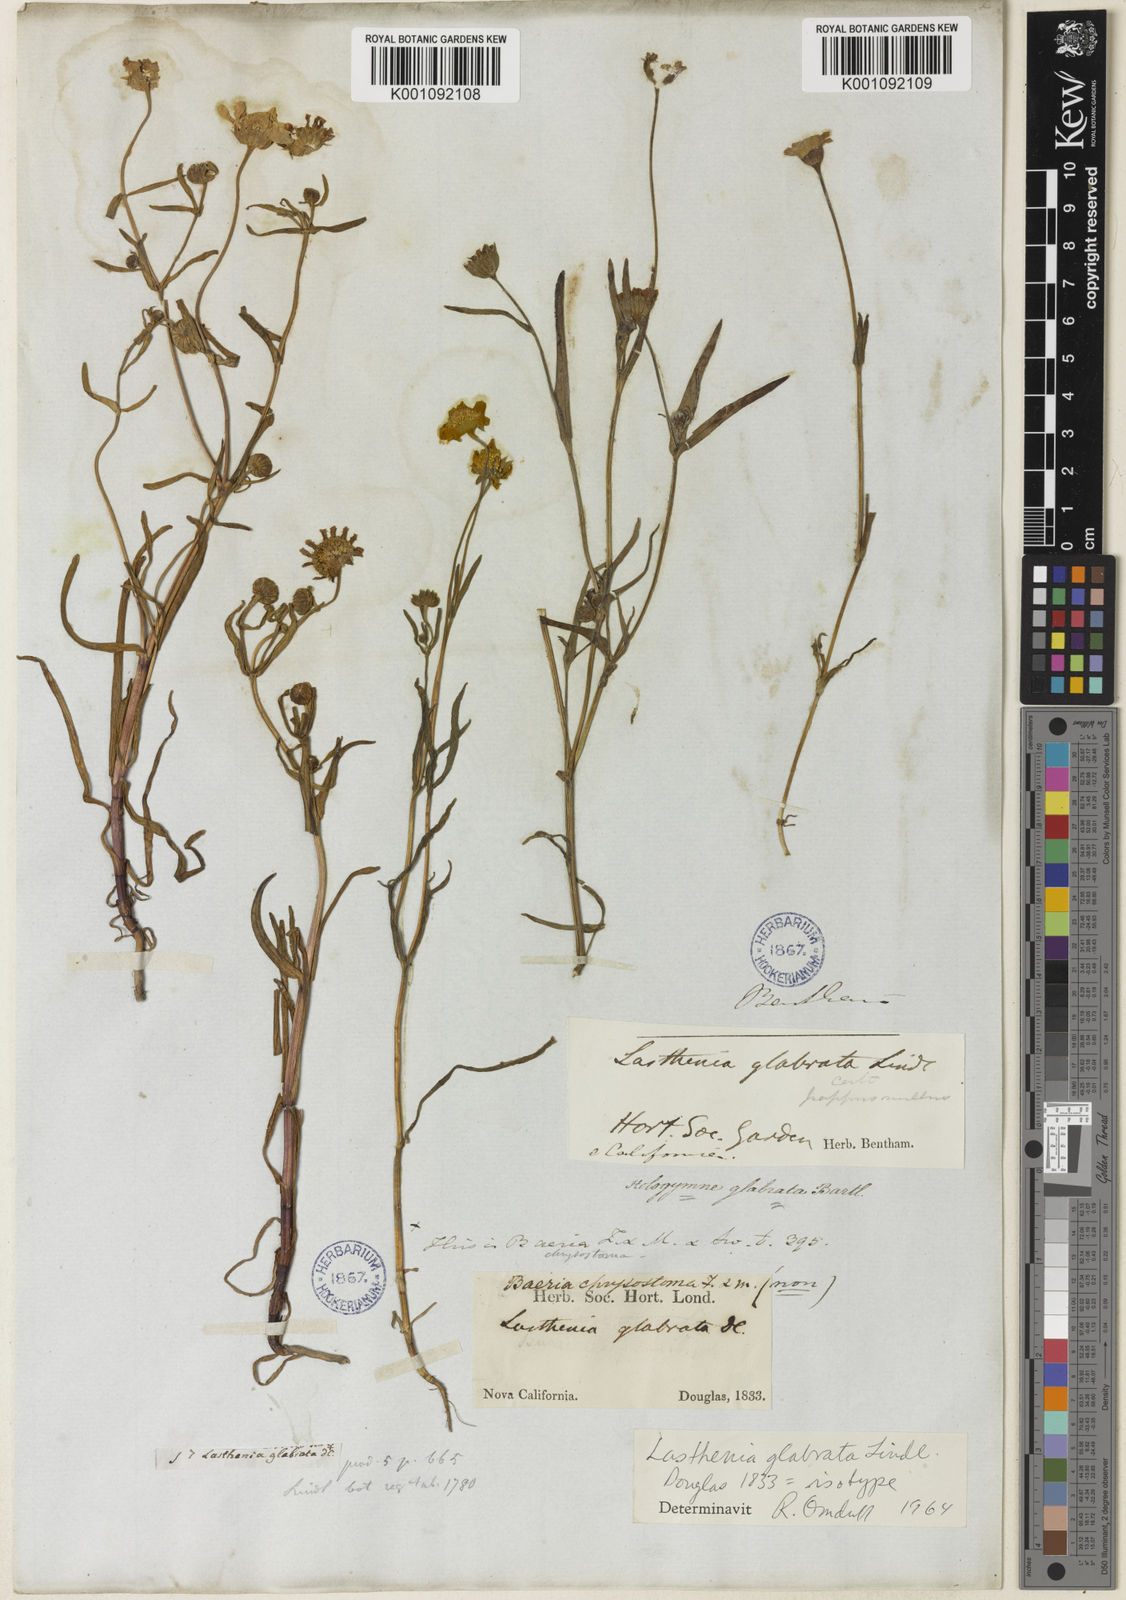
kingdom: Plantae
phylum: Tracheophyta
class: Magnoliopsida
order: Asterales
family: Asteraceae
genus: Lasthenia
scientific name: Lasthenia glabrata
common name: Yellow-ray lasthenia
